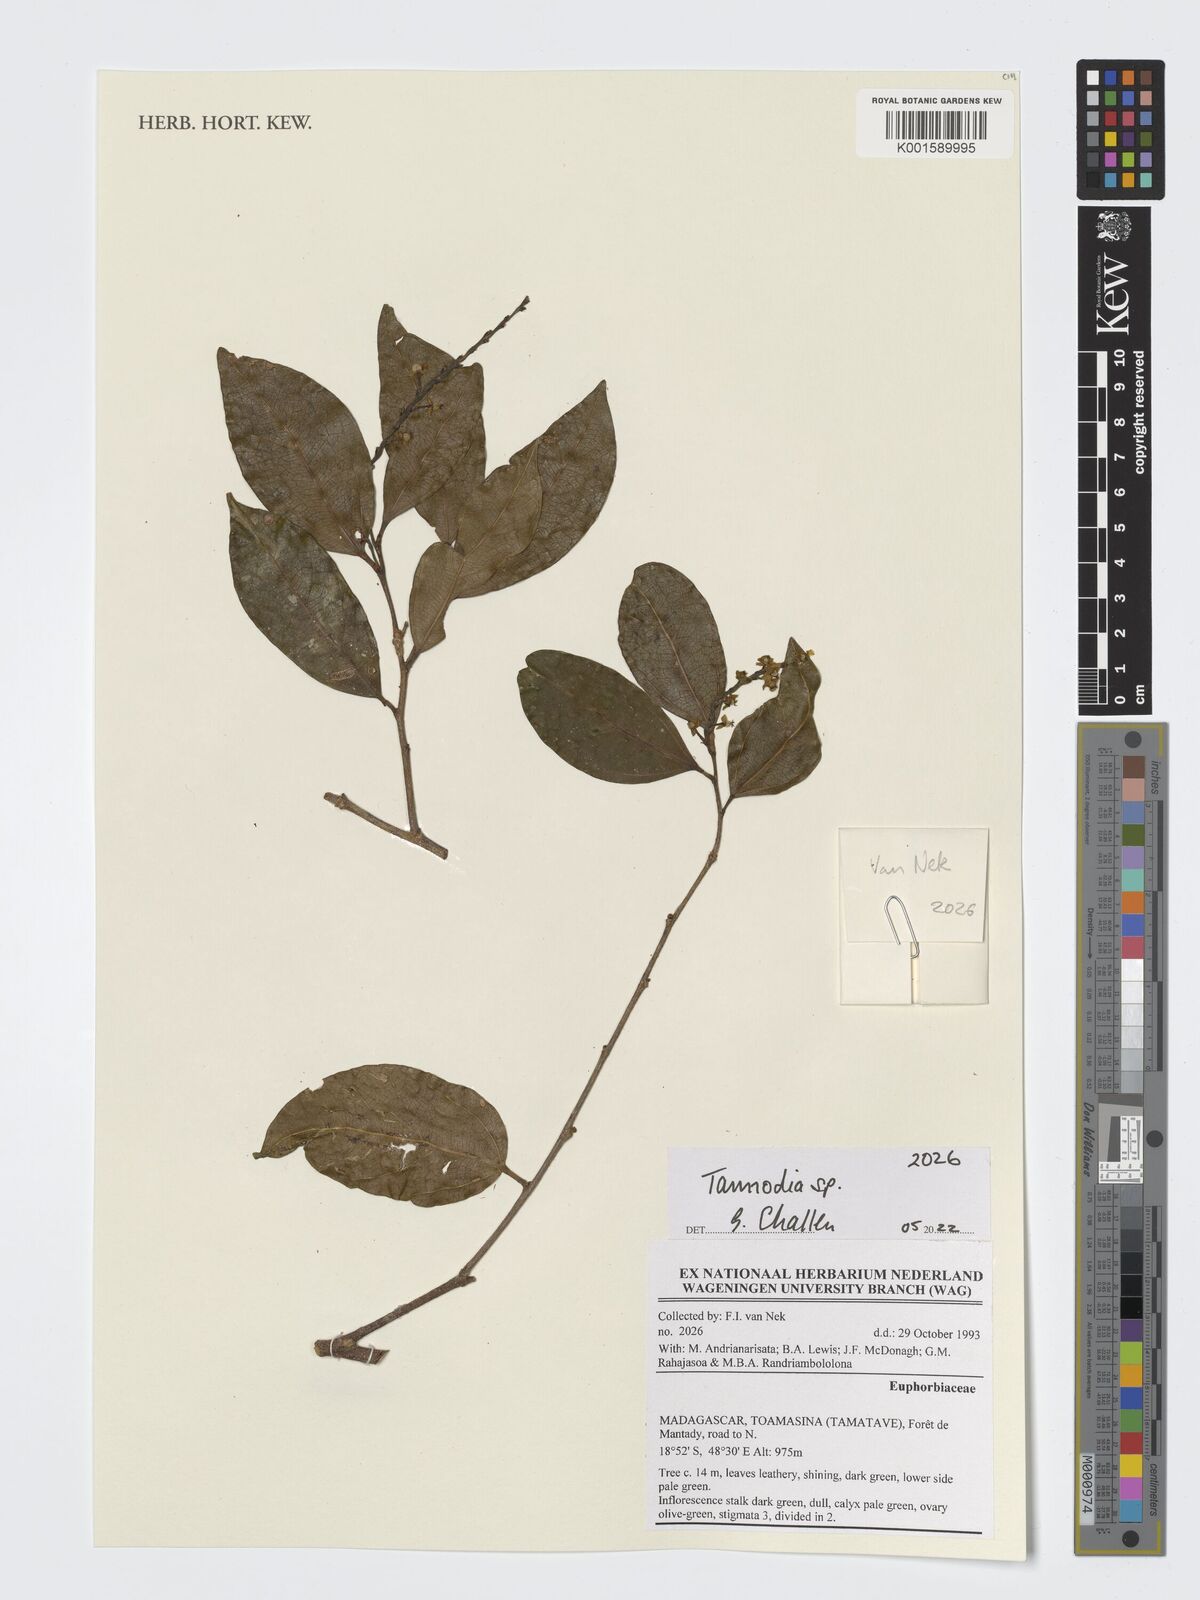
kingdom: Plantae
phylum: Tracheophyta
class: Magnoliopsida
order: Malpighiales
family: Euphorbiaceae
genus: Tannodia
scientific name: Tannodia
